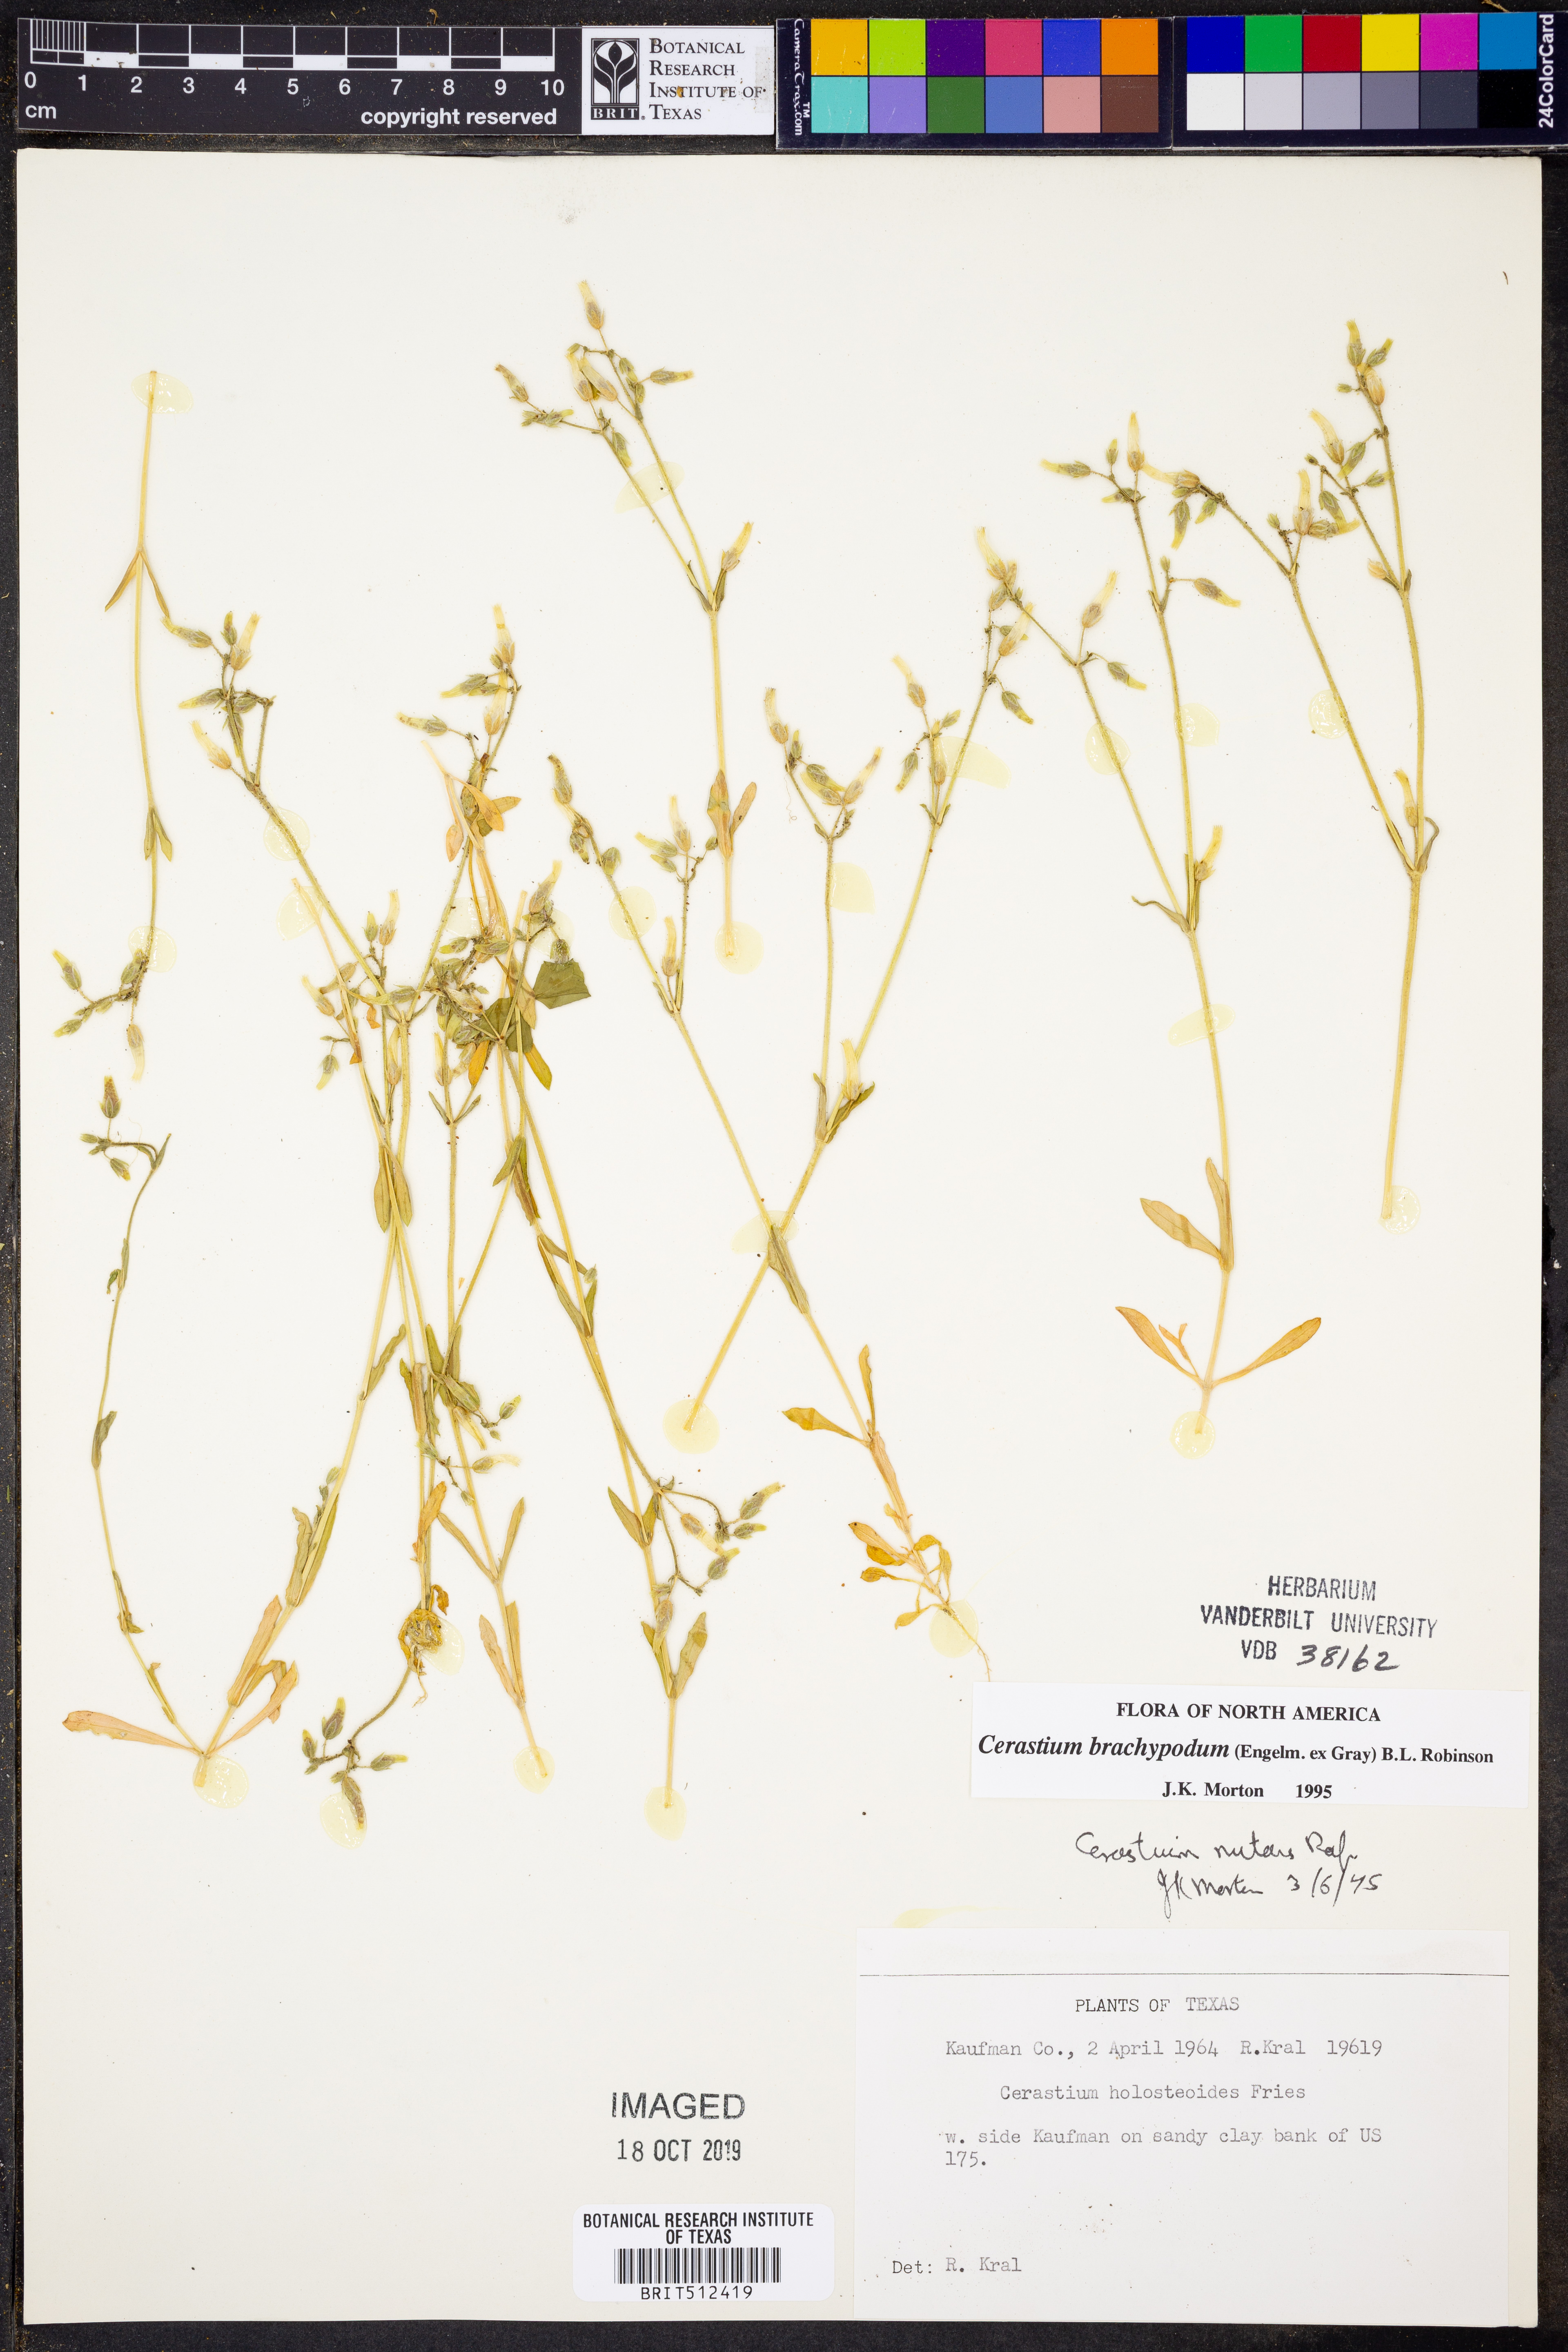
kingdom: Plantae
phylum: Tracheophyta
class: Magnoliopsida
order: Caryophyllales
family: Caryophyllaceae
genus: Cerastium
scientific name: Cerastium brachypodum
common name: Short-pedicelled nodding chickweed
